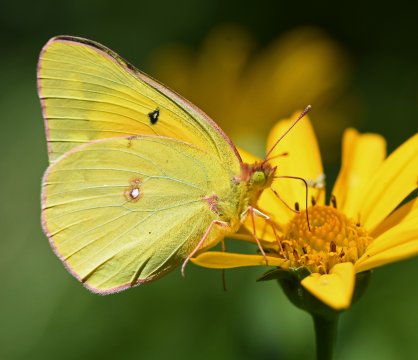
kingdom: Animalia
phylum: Arthropoda
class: Insecta
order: Lepidoptera
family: Pieridae
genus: Colias
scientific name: Colias eurytheme
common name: Orange Sulphur
